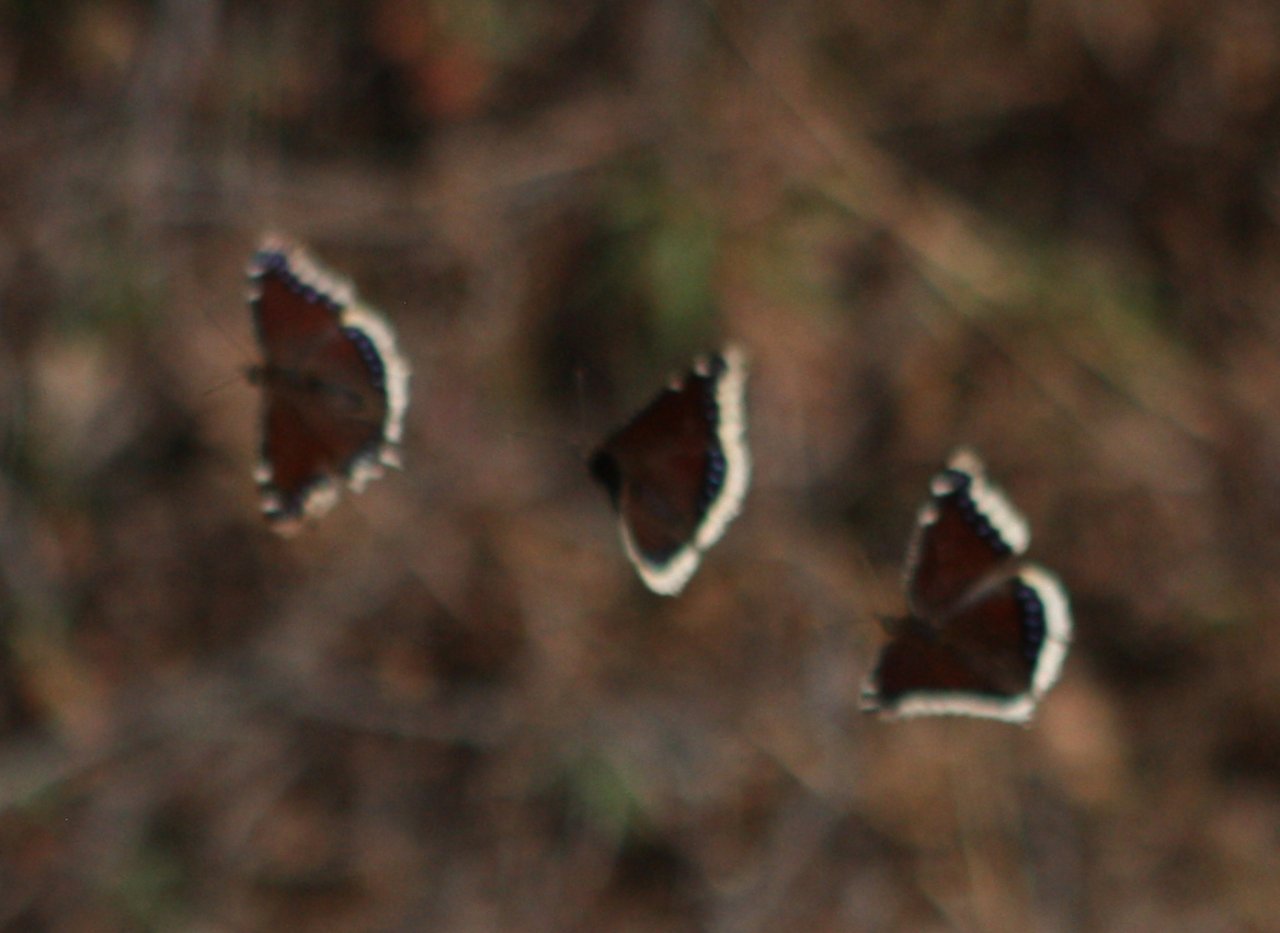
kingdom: Animalia
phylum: Arthropoda
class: Insecta
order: Lepidoptera
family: Nymphalidae
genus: Nymphalis
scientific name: Nymphalis antiopa
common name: Mourning Cloak
